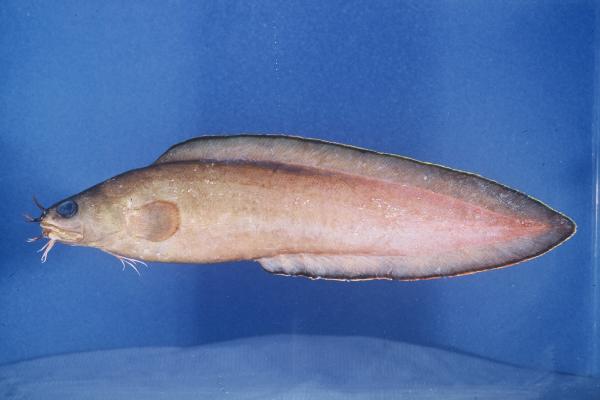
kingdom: Animalia
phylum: Chordata
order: Ophidiiformes
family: Ophidiidae
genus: Brotula
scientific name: Brotula multibarbata
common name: Goatsbeard brotula
